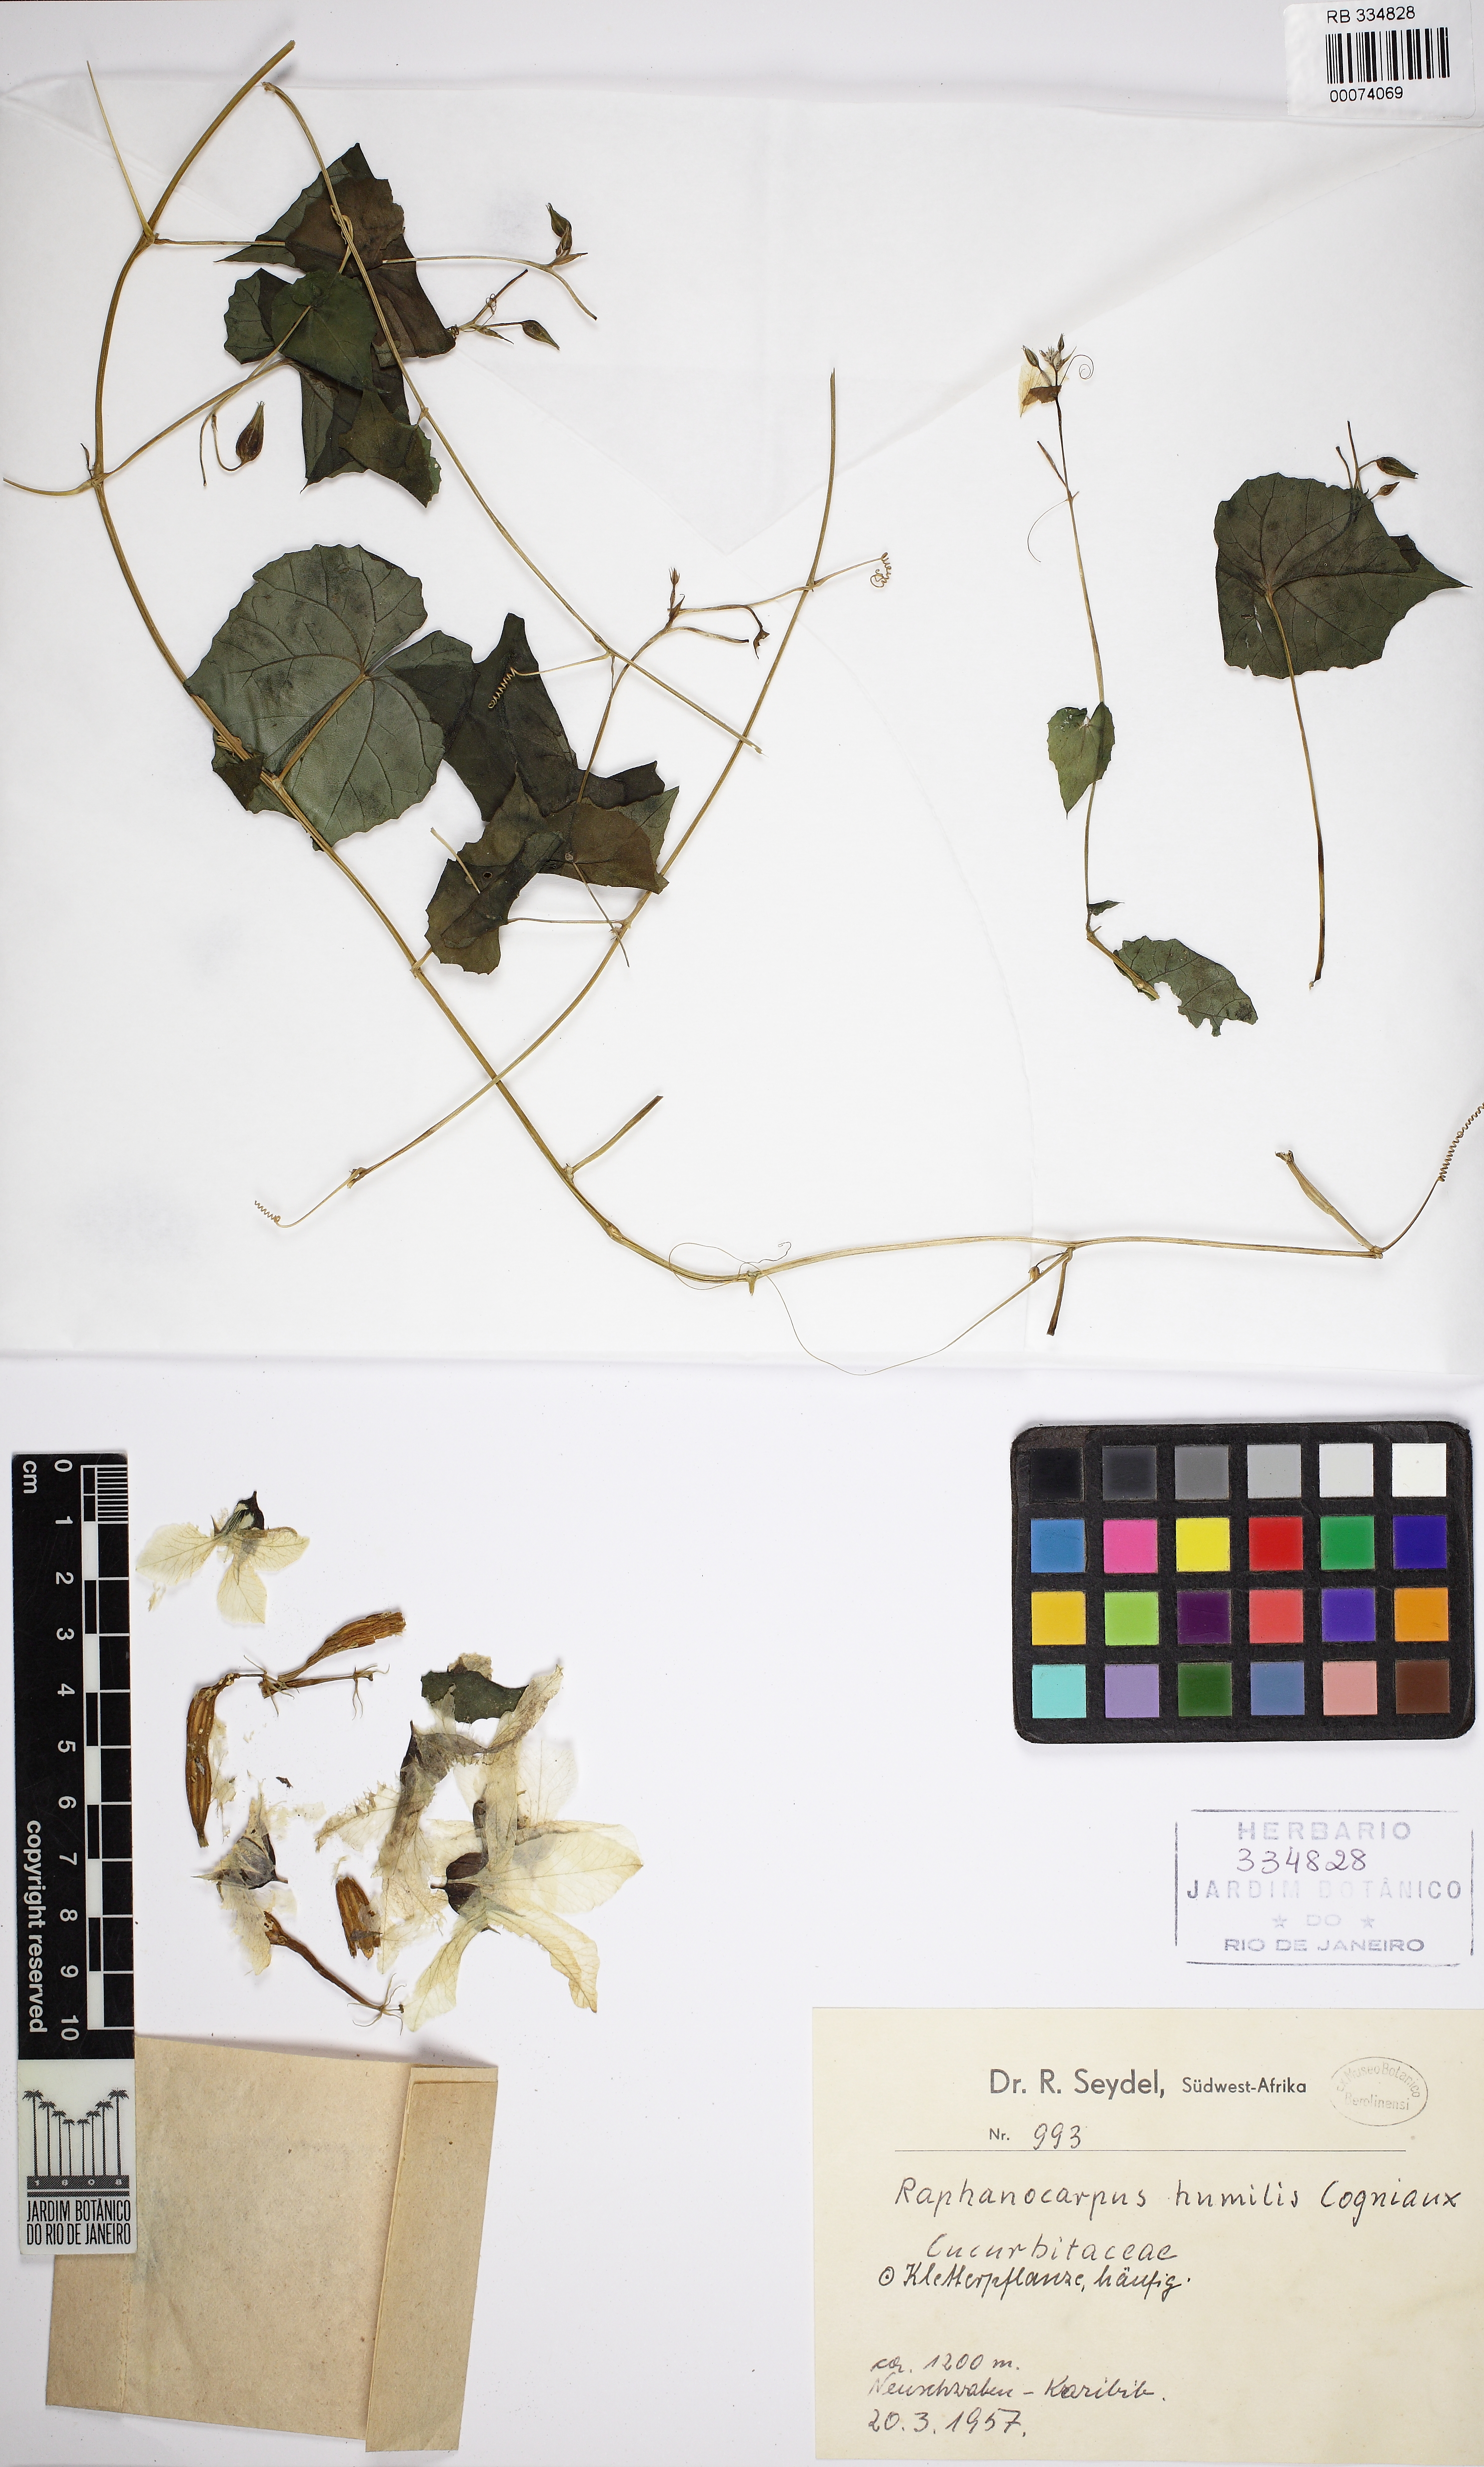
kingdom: Plantae
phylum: Tracheophyta
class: Magnoliopsida
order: Cucurbitales
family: Cucurbitaceae
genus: Momordica
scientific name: Momordica humilis
